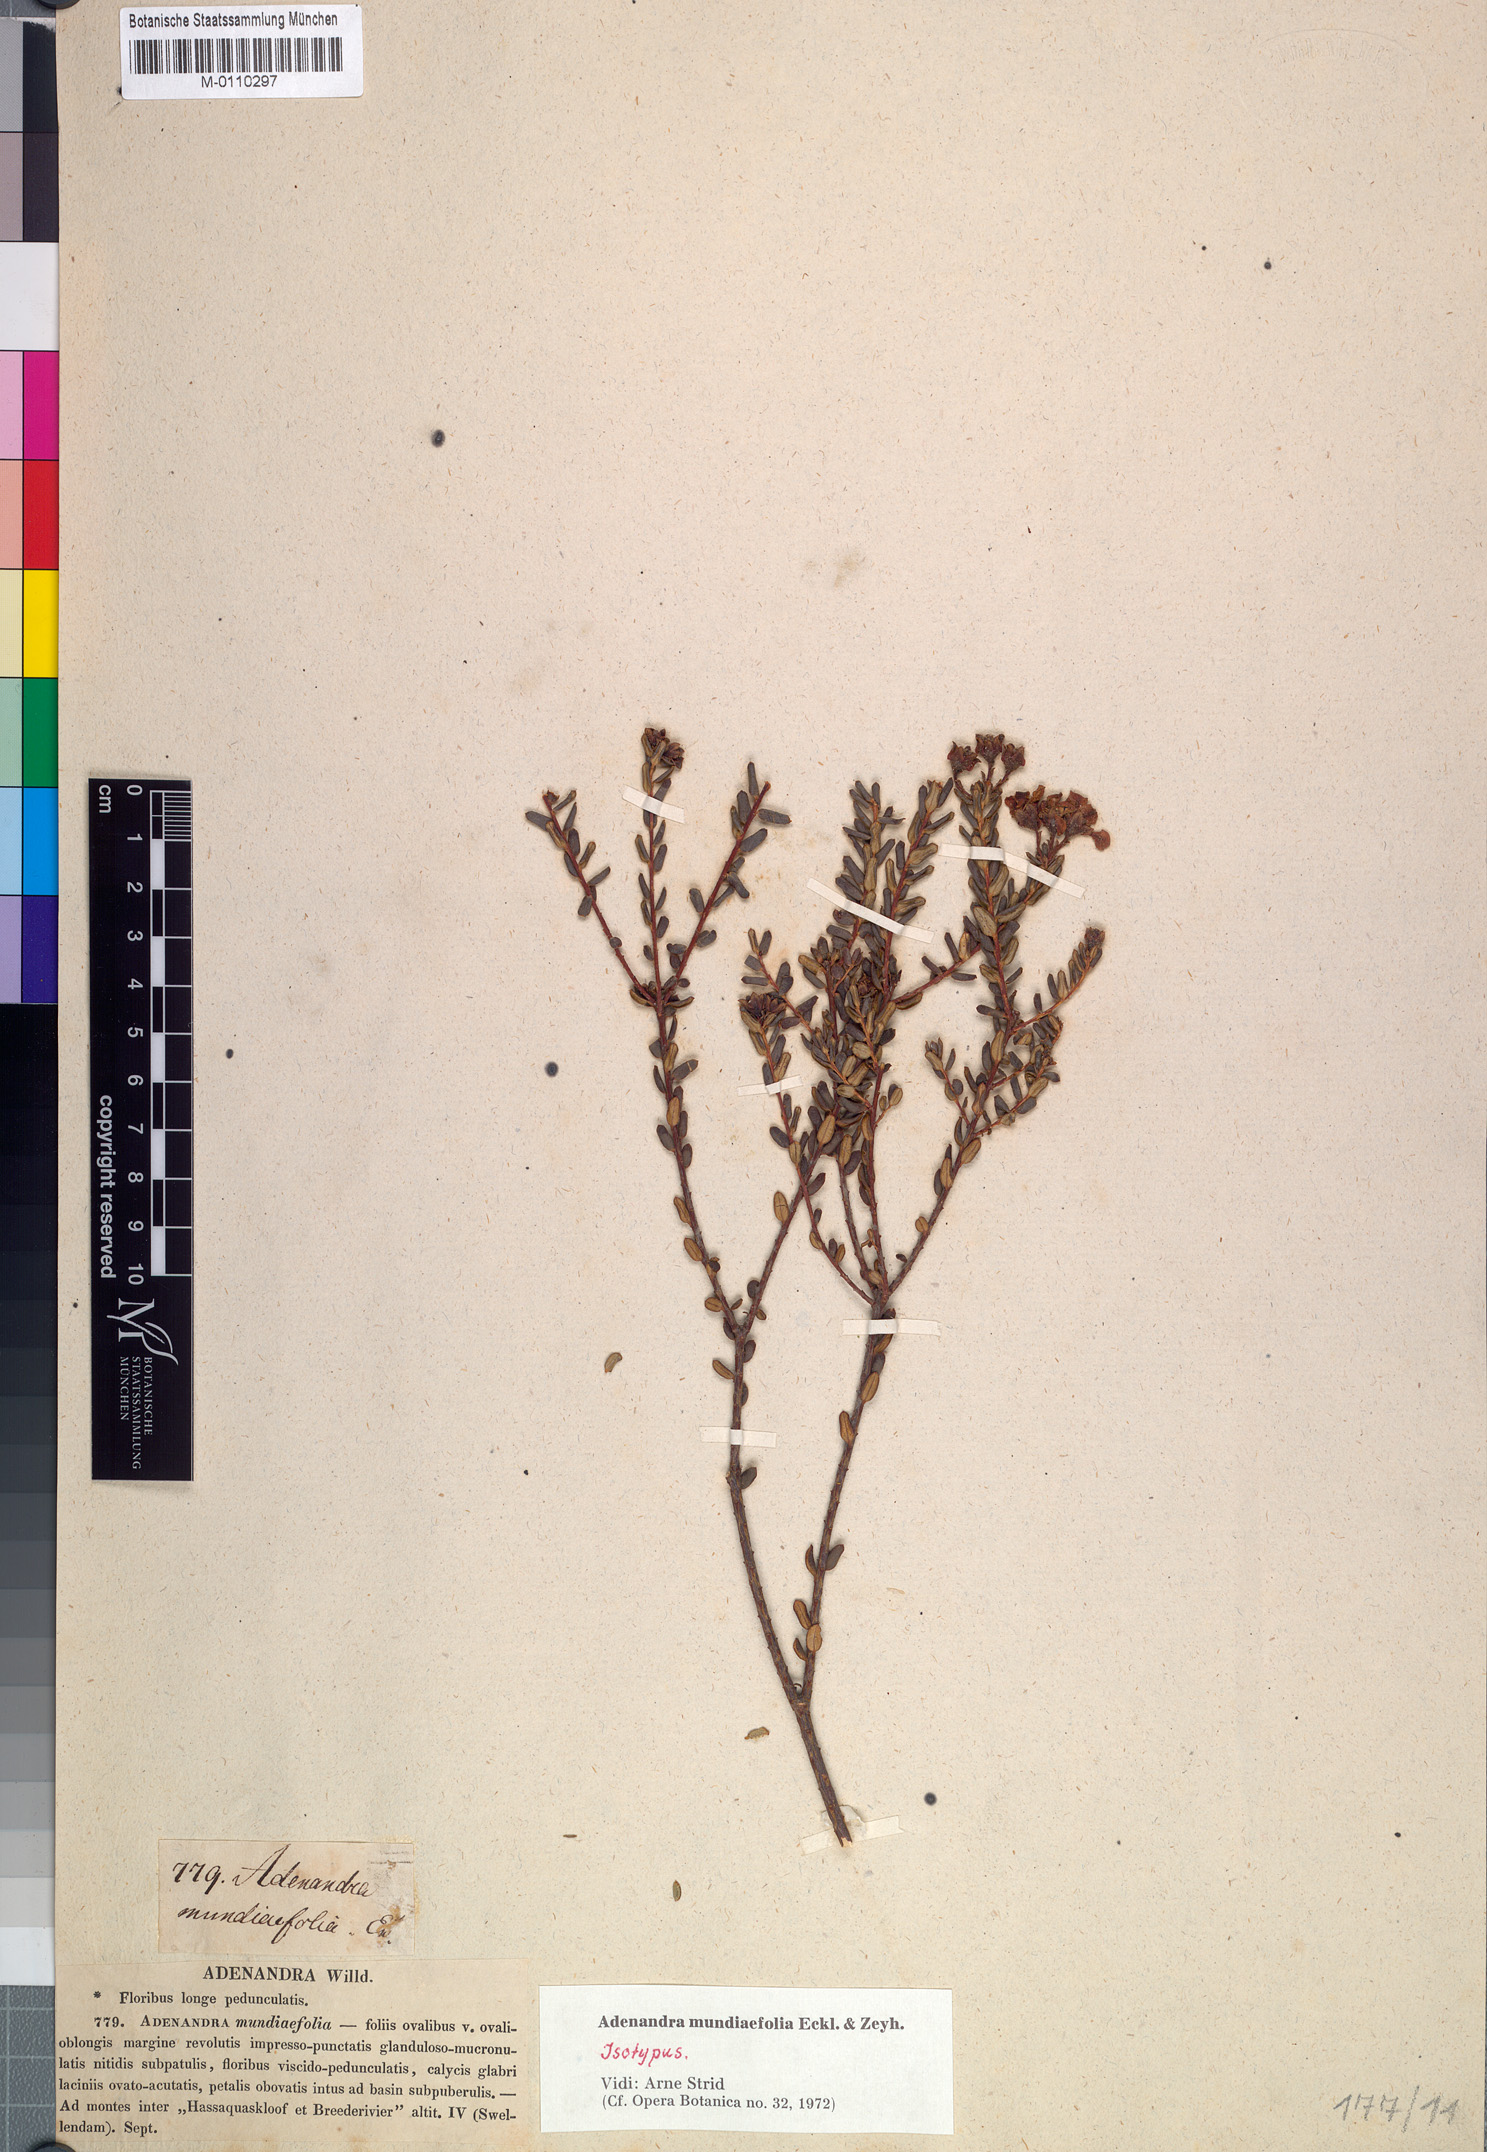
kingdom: Plantae
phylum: Tracheophyta
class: Magnoliopsida
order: Sapindales
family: Rutaceae
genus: Adenandra
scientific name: Adenandra mundiifolia
